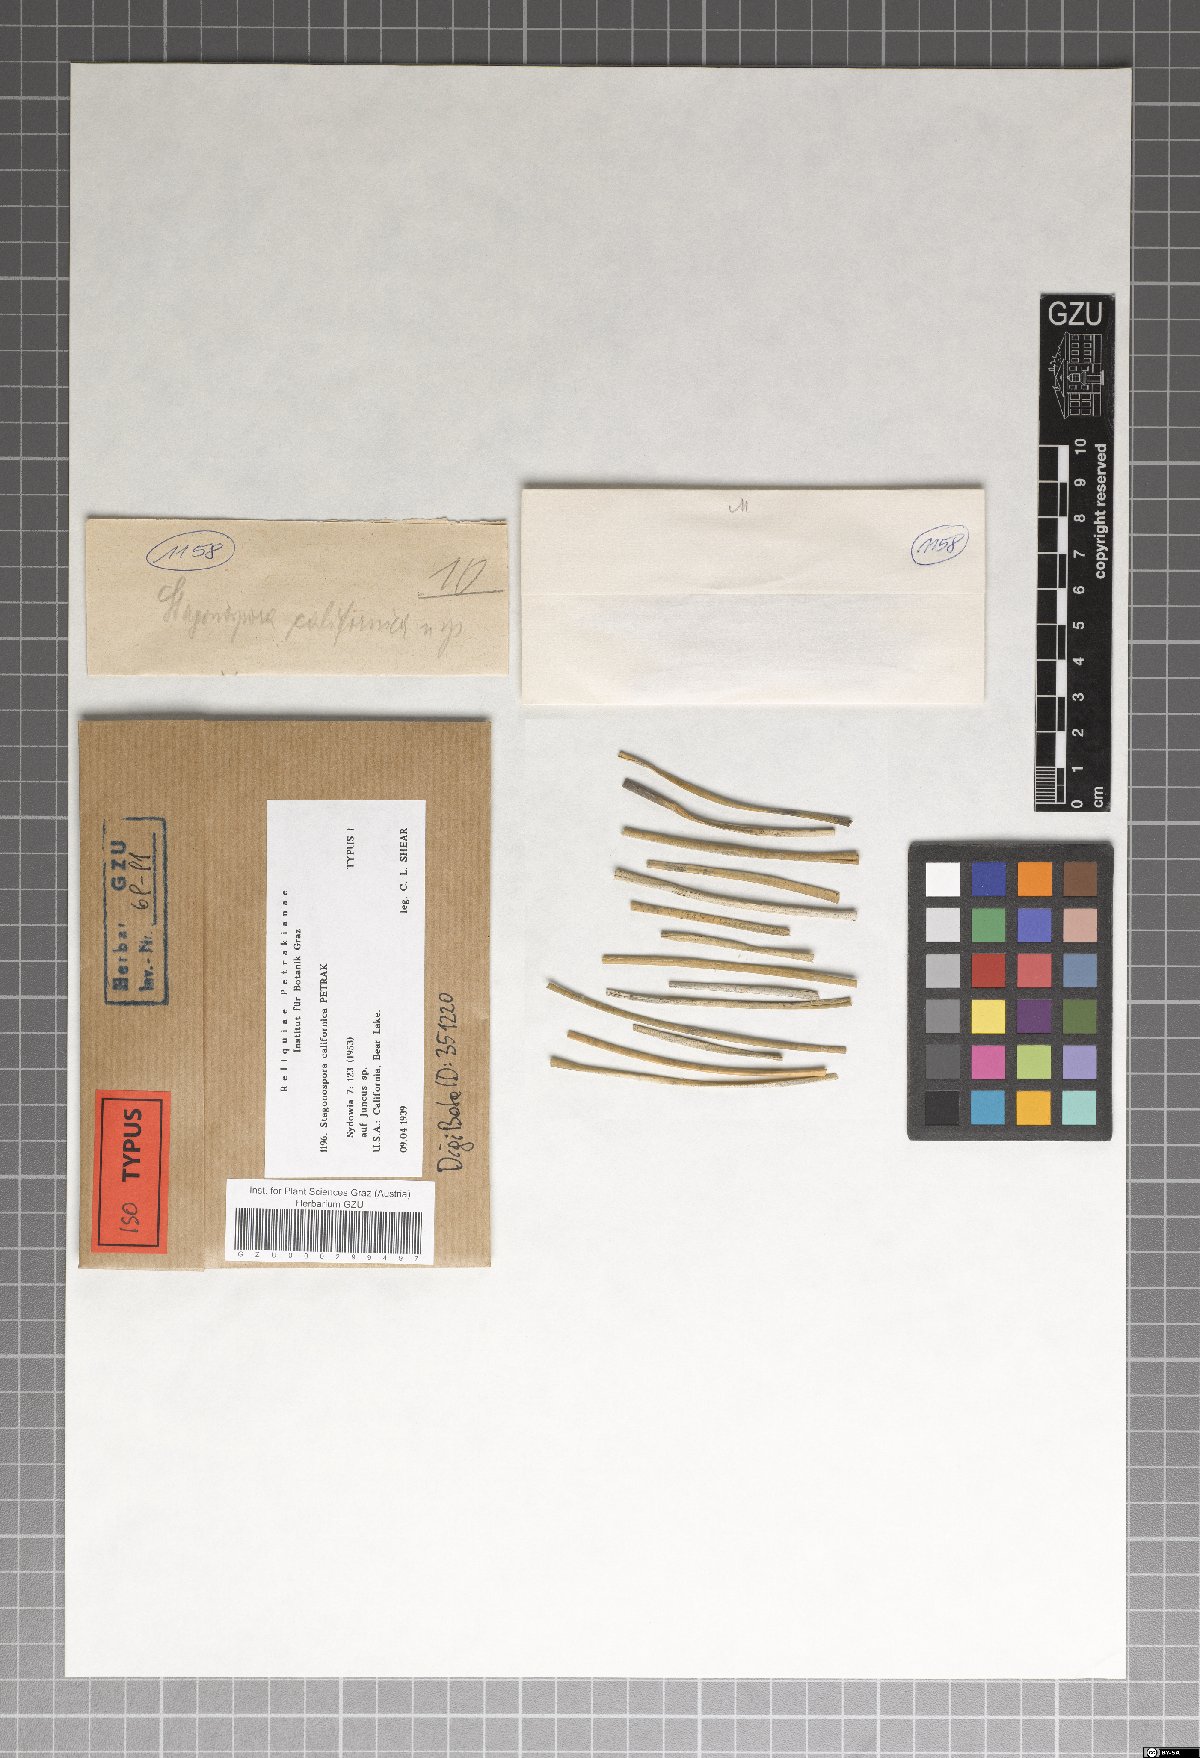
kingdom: Fungi
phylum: Ascomycota
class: Dothideomycetes
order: Pleosporales
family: Phaeosphaeriaceae
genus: Stagonospora
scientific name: Stagonospora californica
